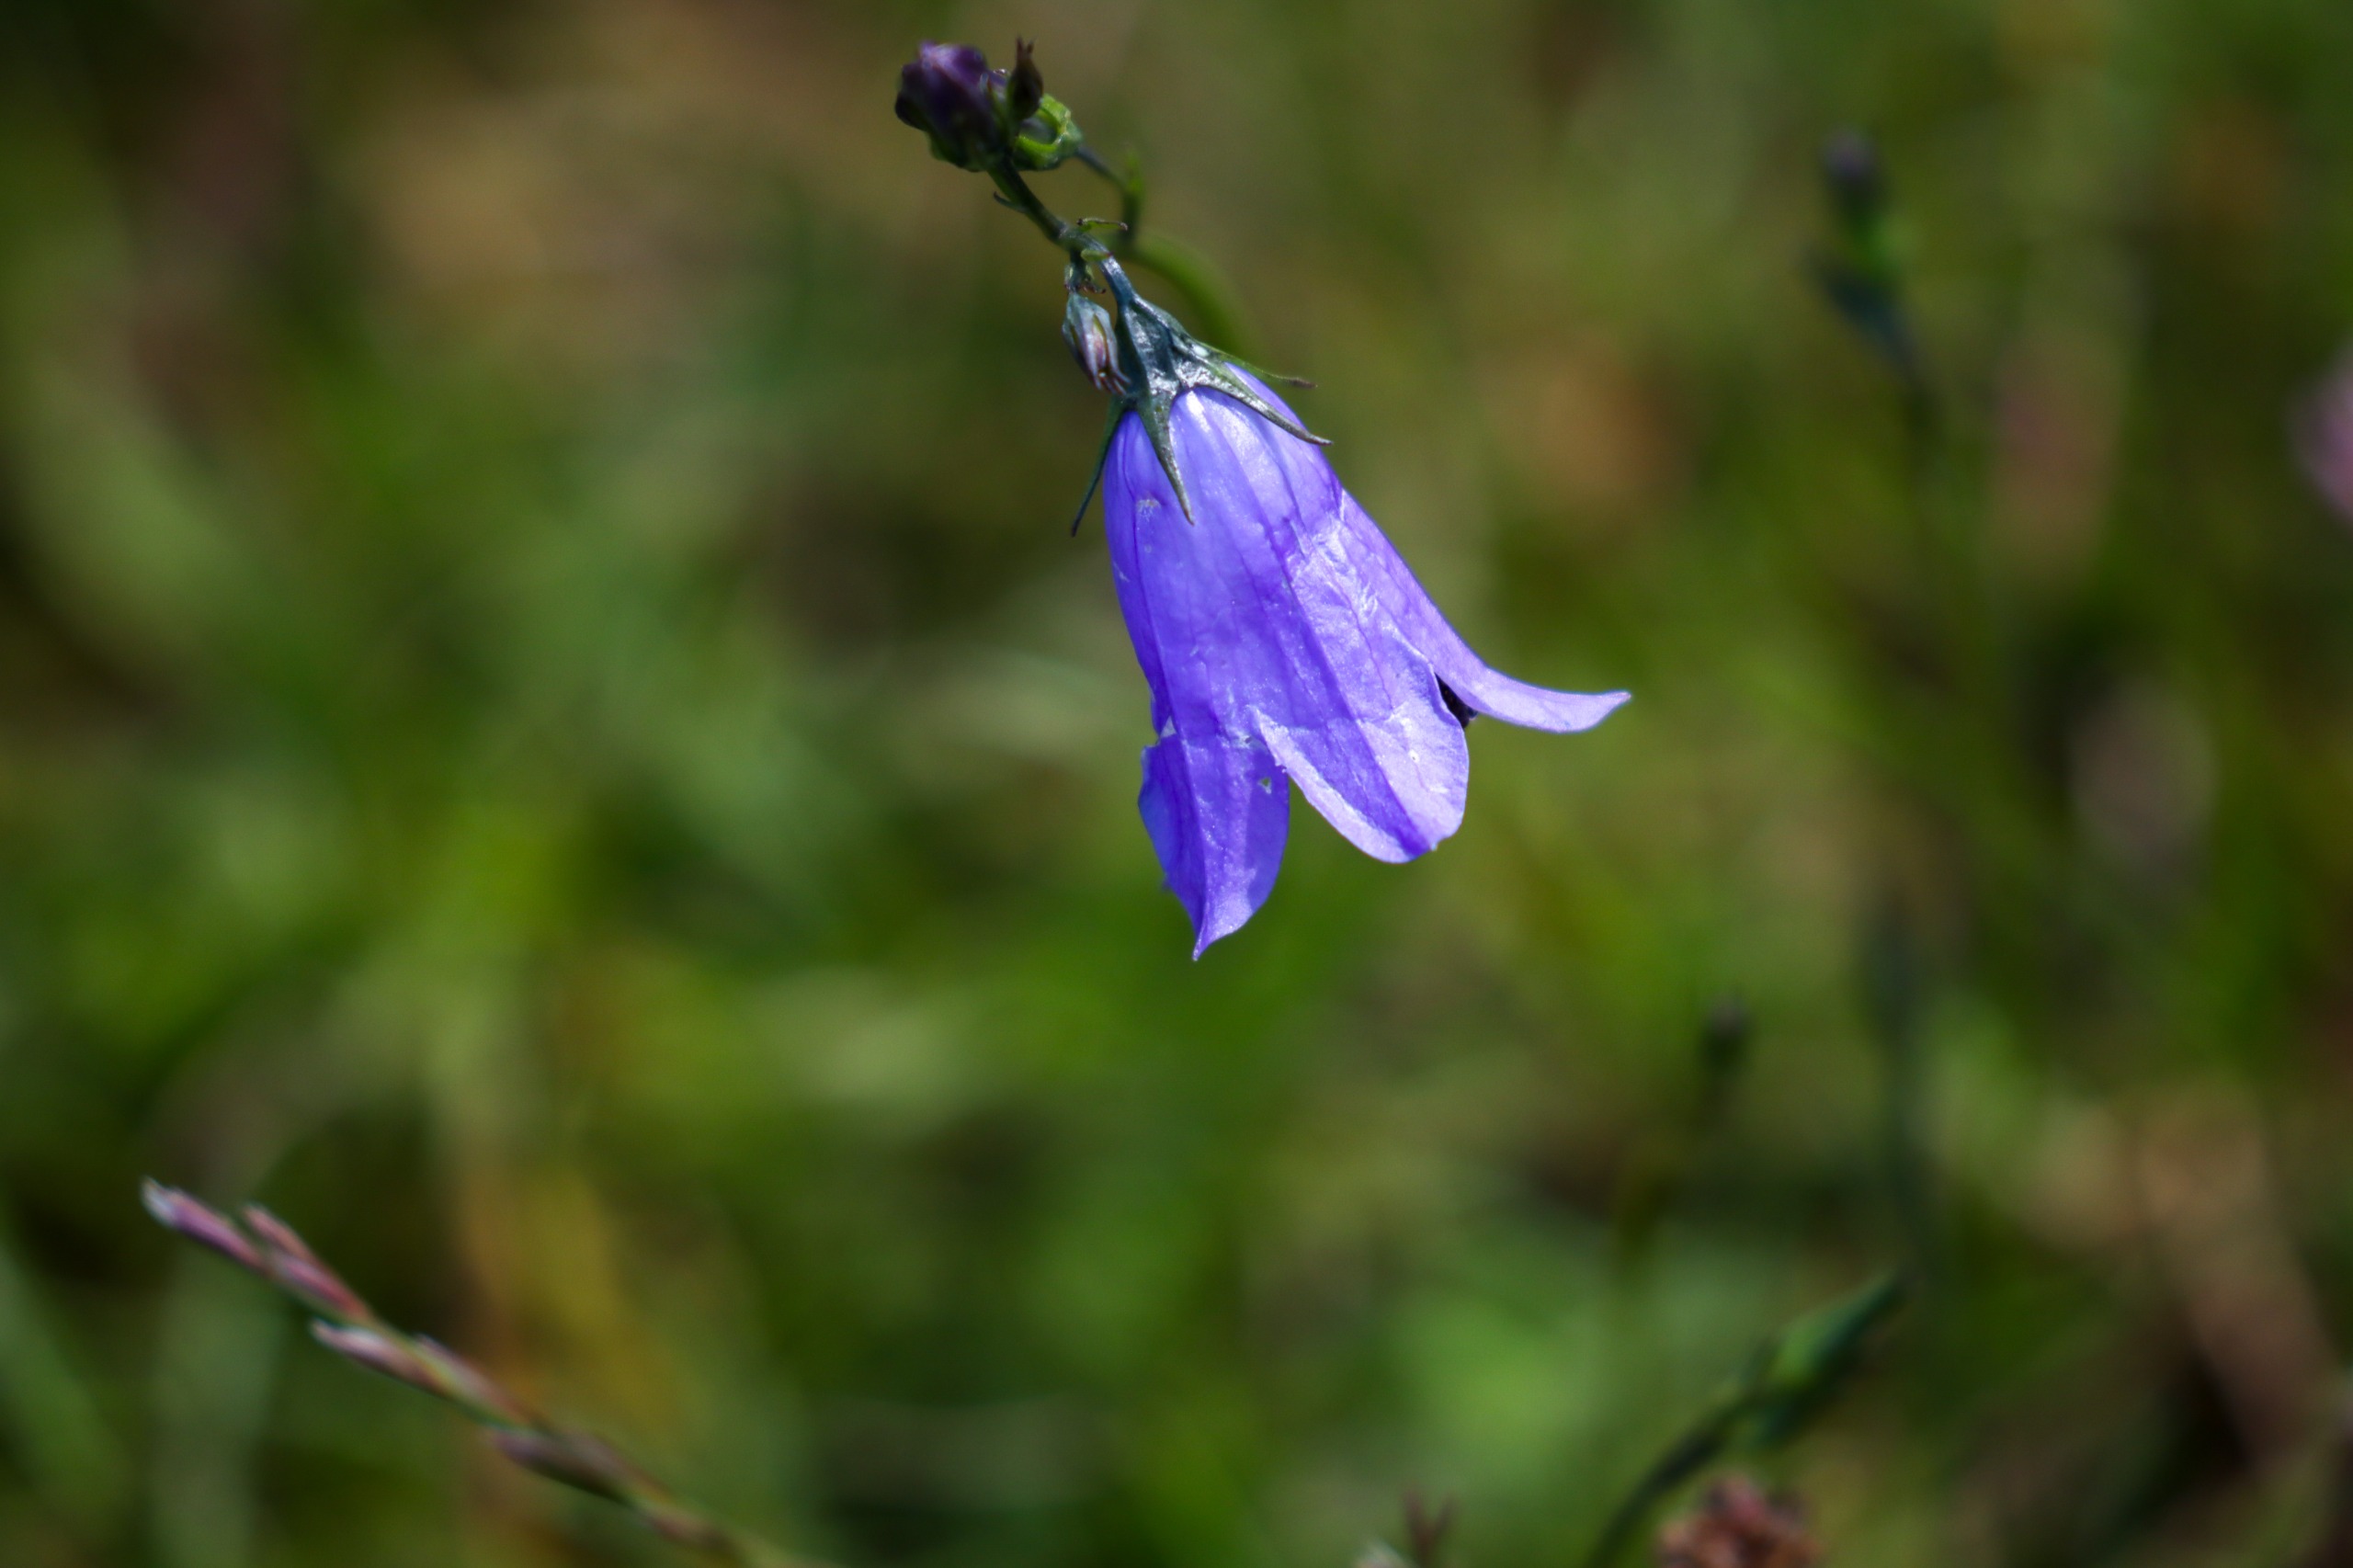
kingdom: Plantae
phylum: Tracheophyta
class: Magnoliopsida
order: Asterales
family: Campanulaceae
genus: Campanula
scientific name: Campanula rotundifolia
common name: Liden klokke
